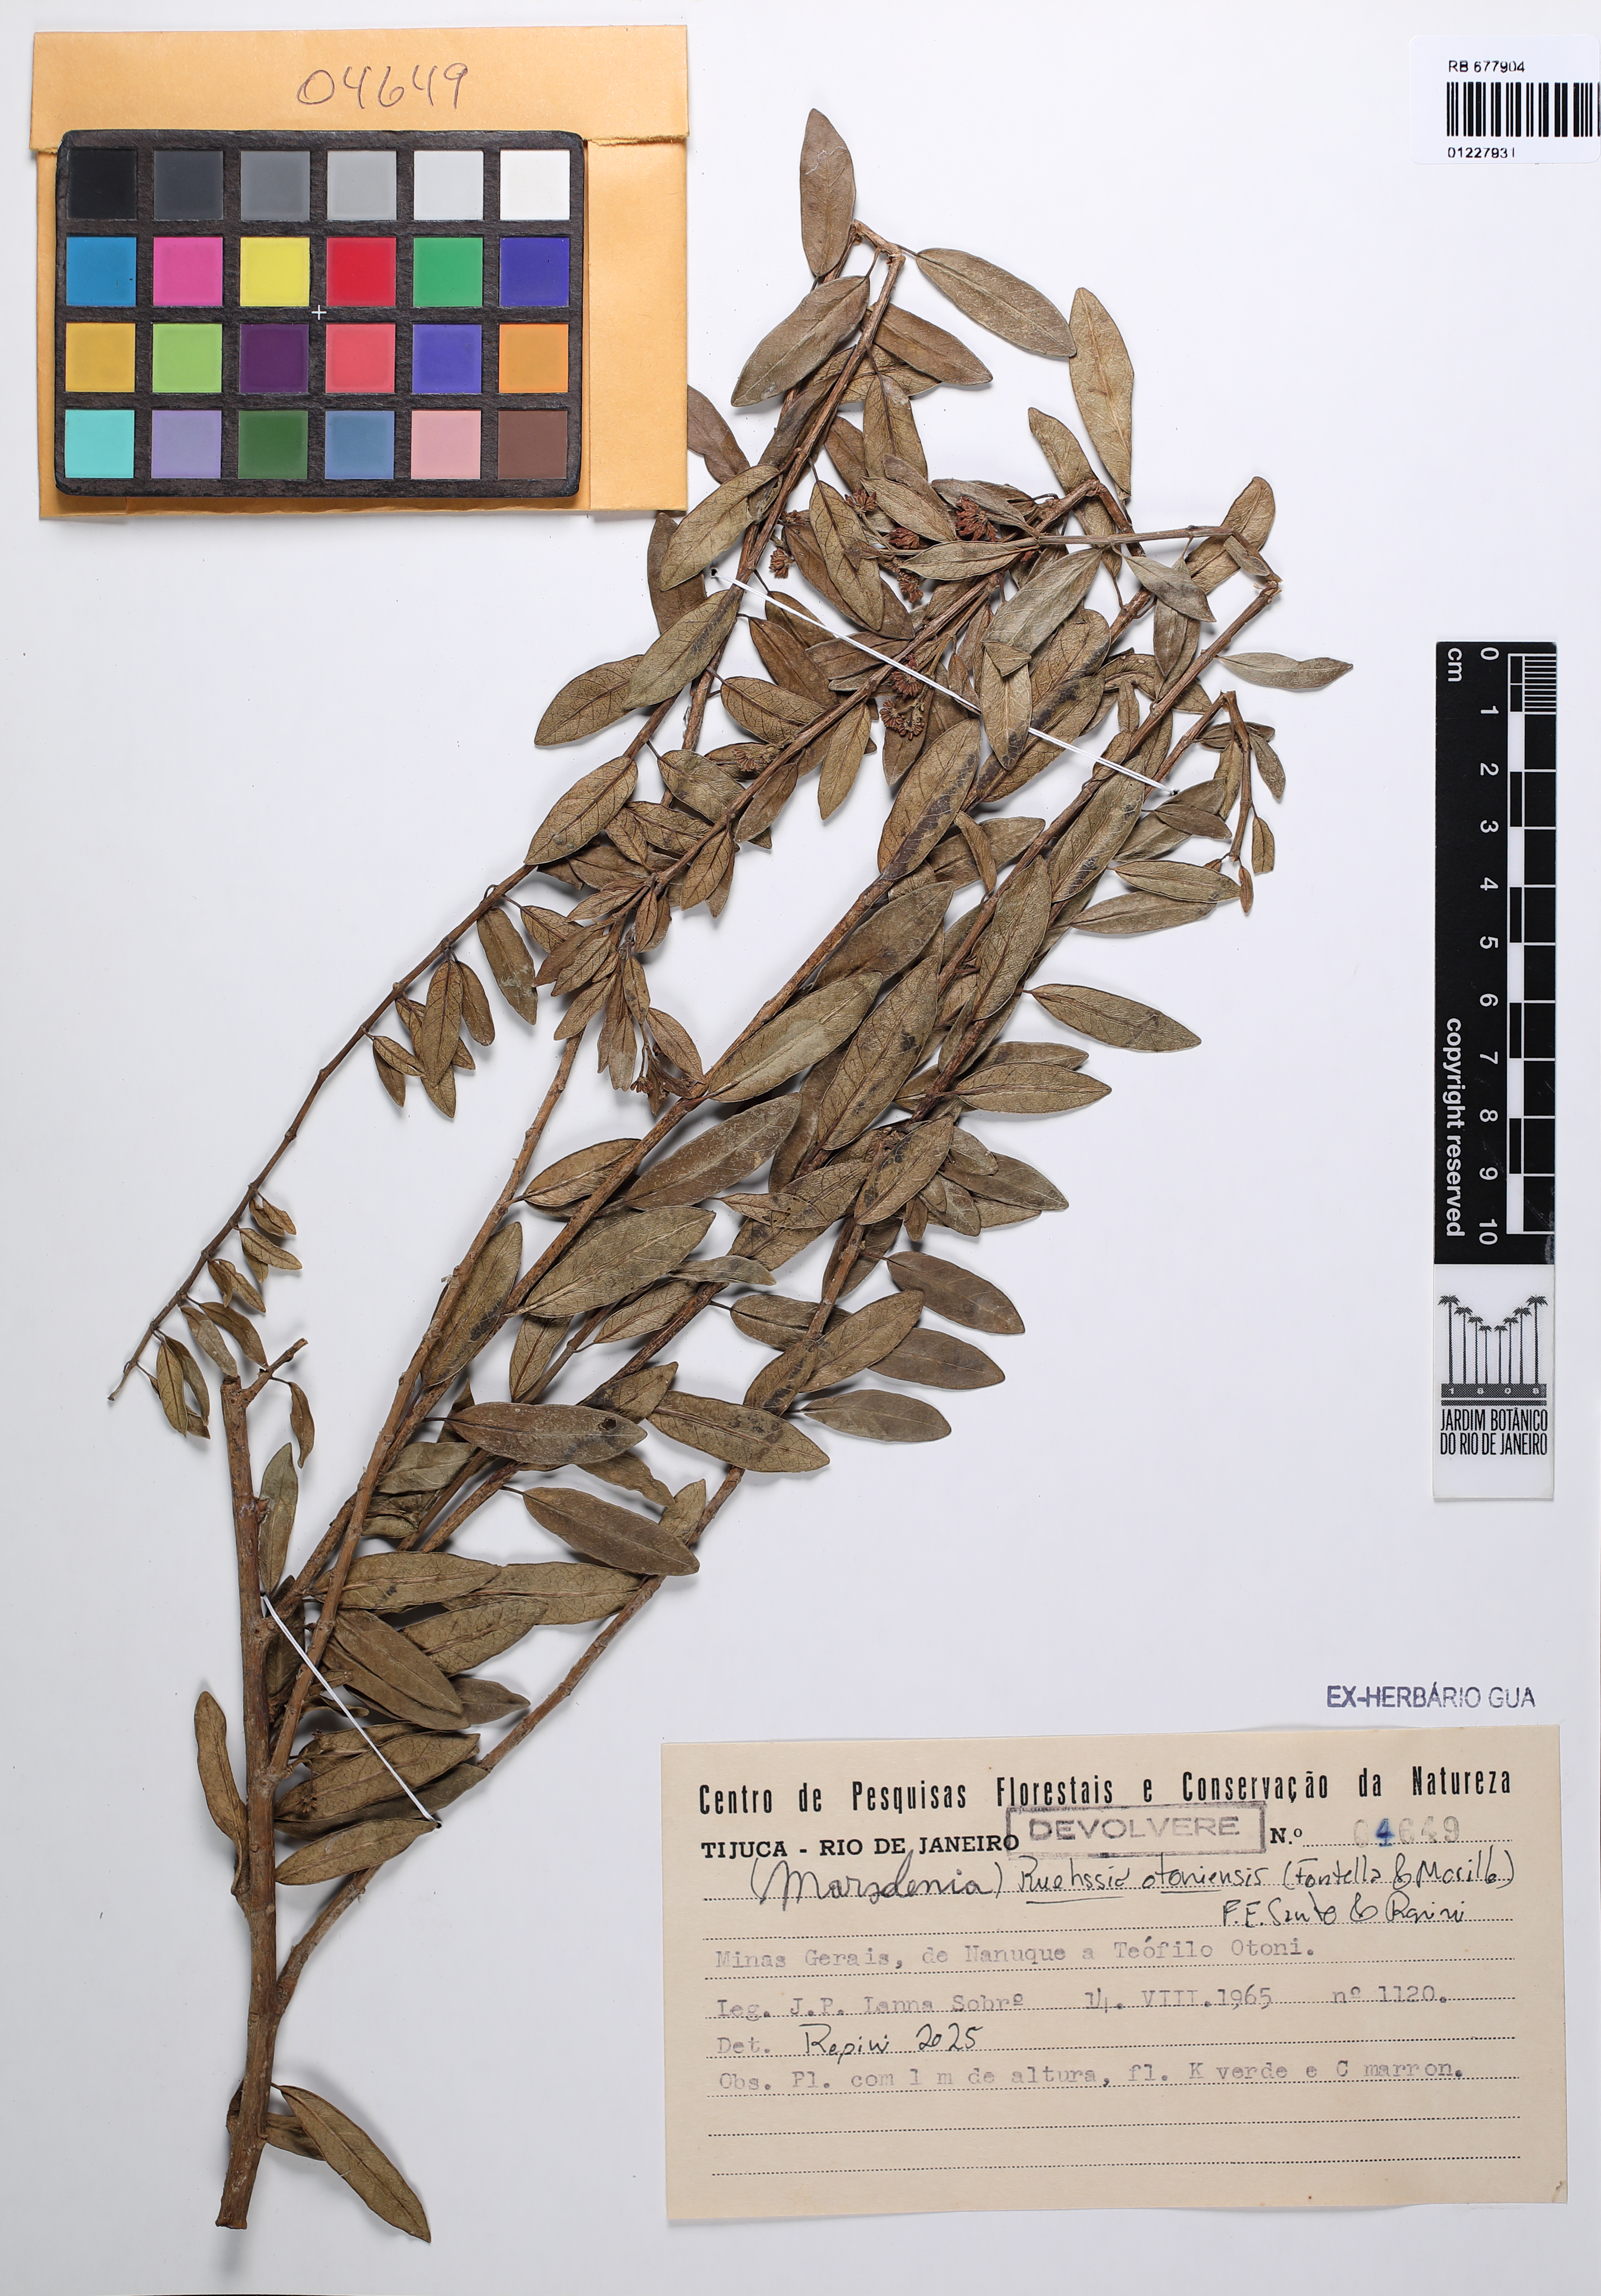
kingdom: Plantae
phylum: Tracheophyta
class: Magnoliopsida
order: Gentianales
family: Apocynaceae
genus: Marsdenia
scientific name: Marsdenia
